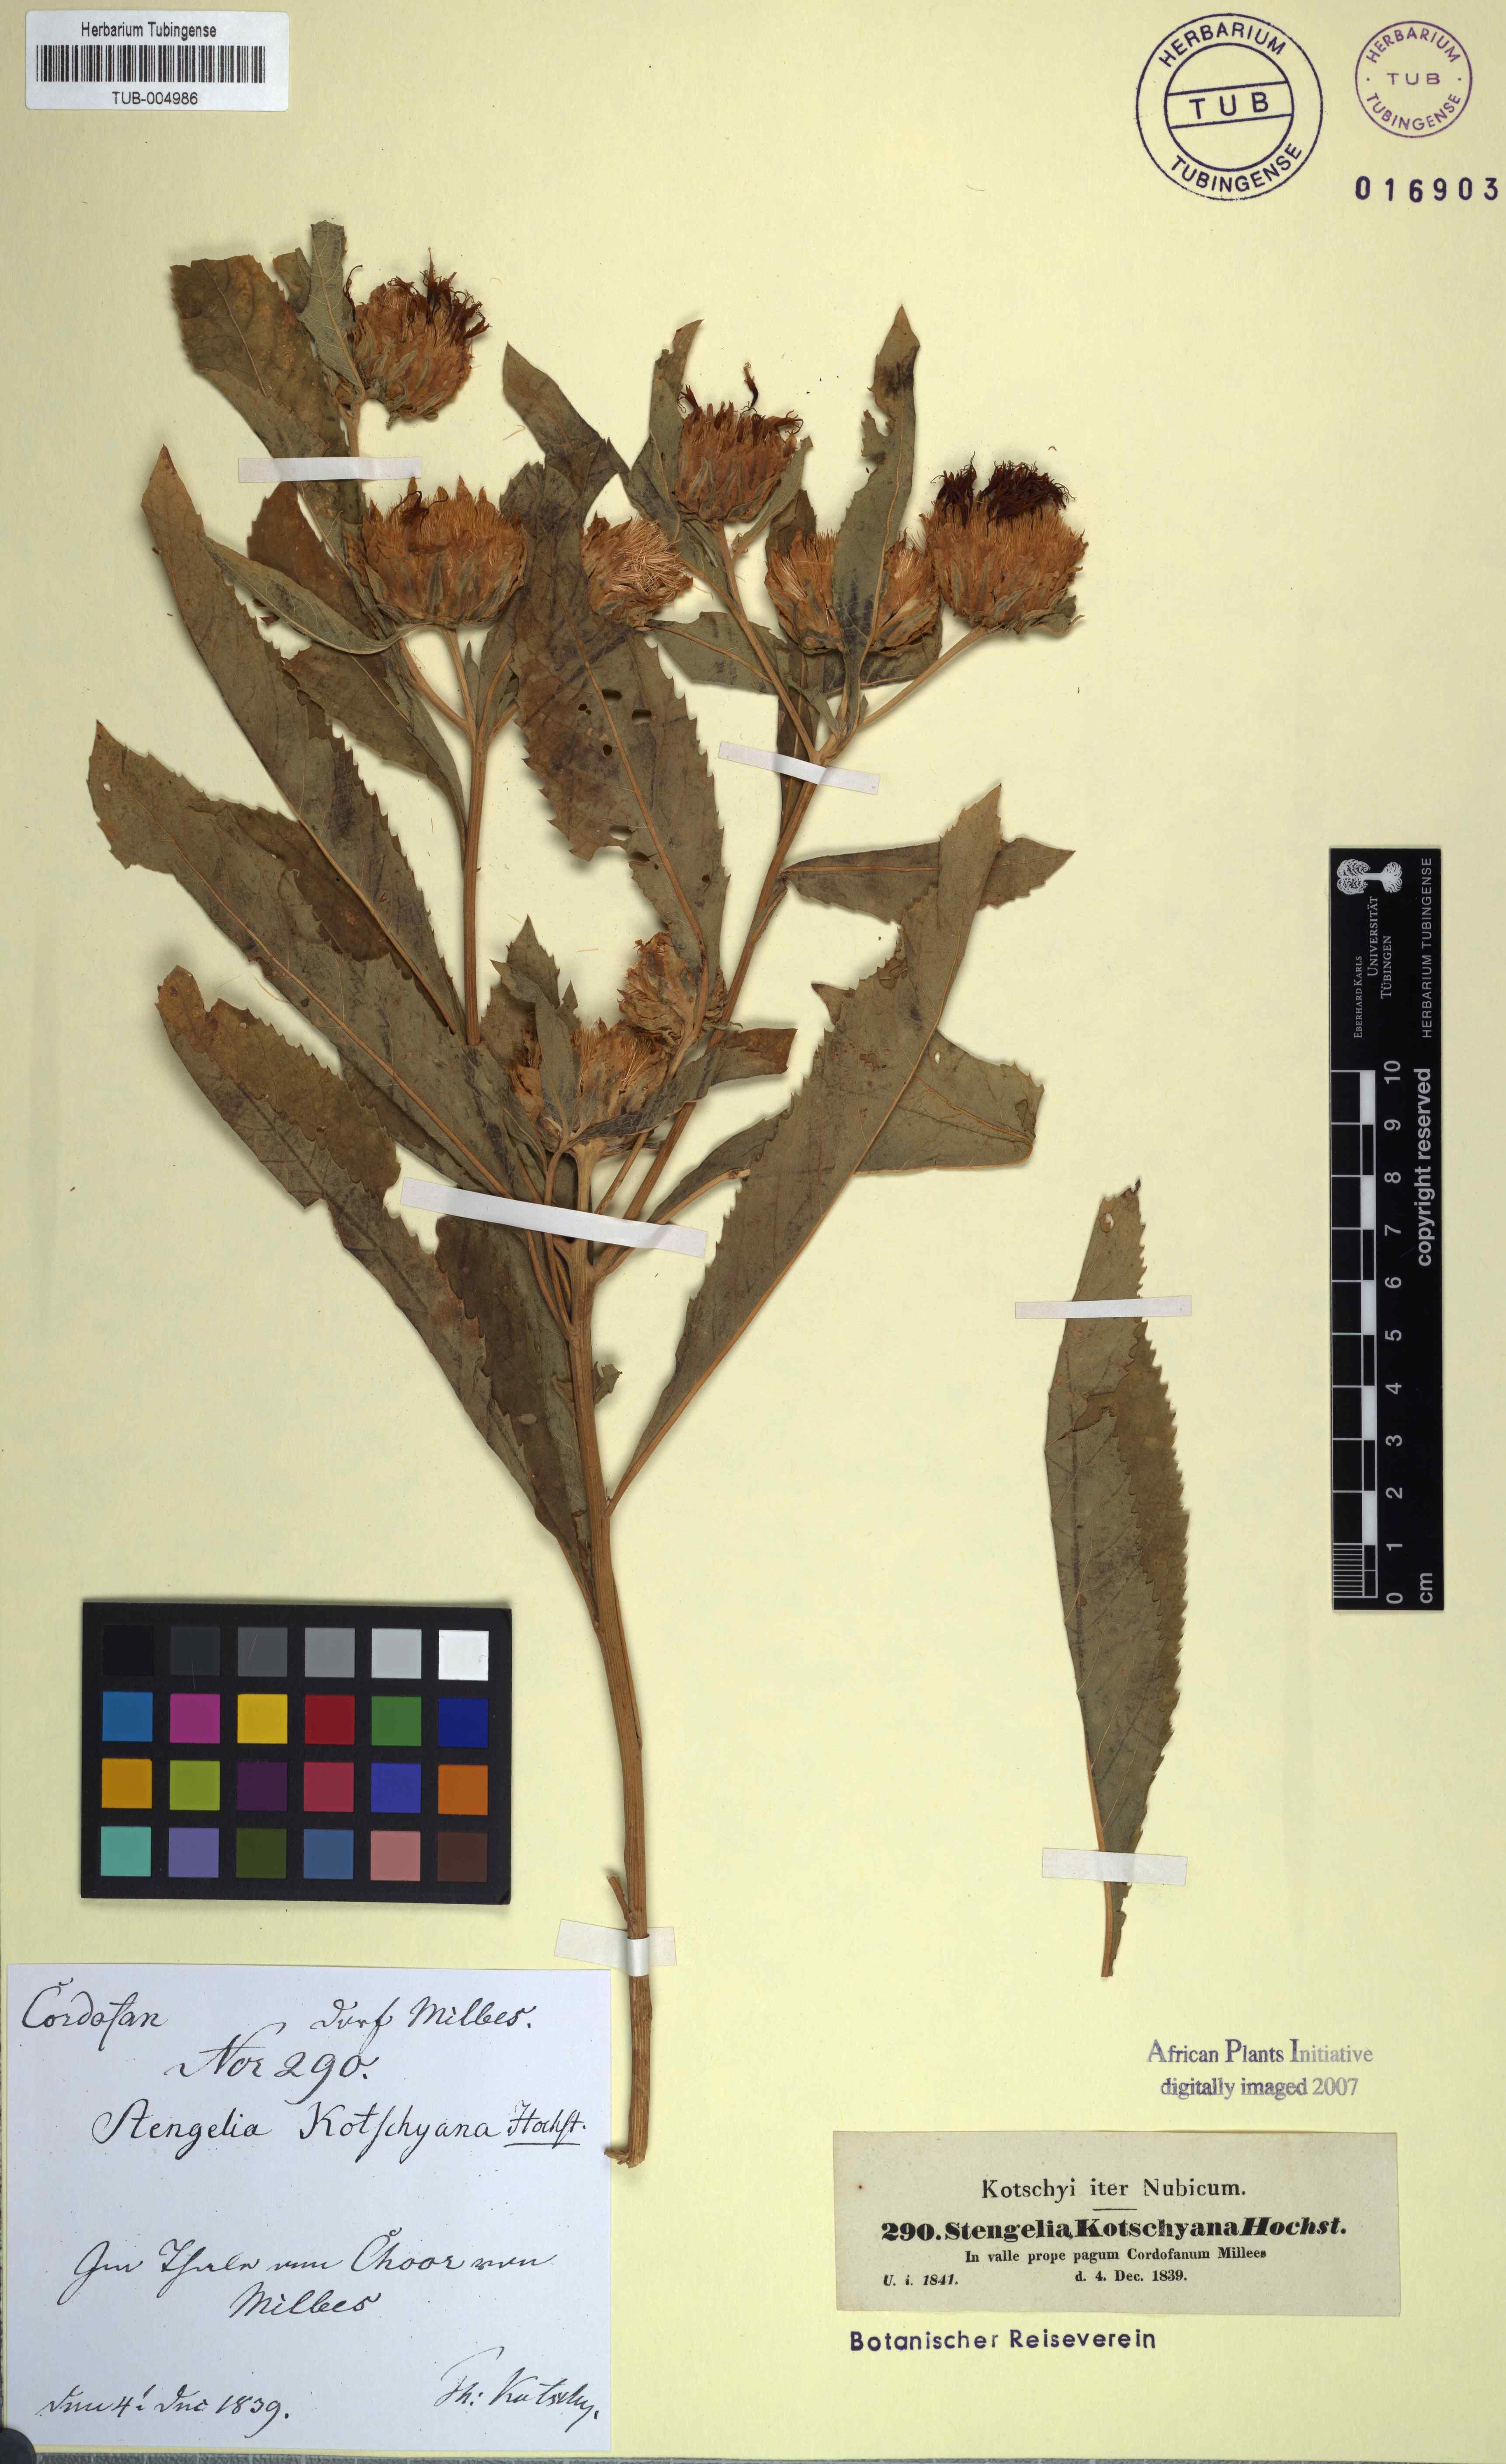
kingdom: Plantae
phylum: Tracheophyta
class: Magnoliopsida
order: Asterales
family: Asteraceae
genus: Baccharoides
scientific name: Baccharoides adoensis
